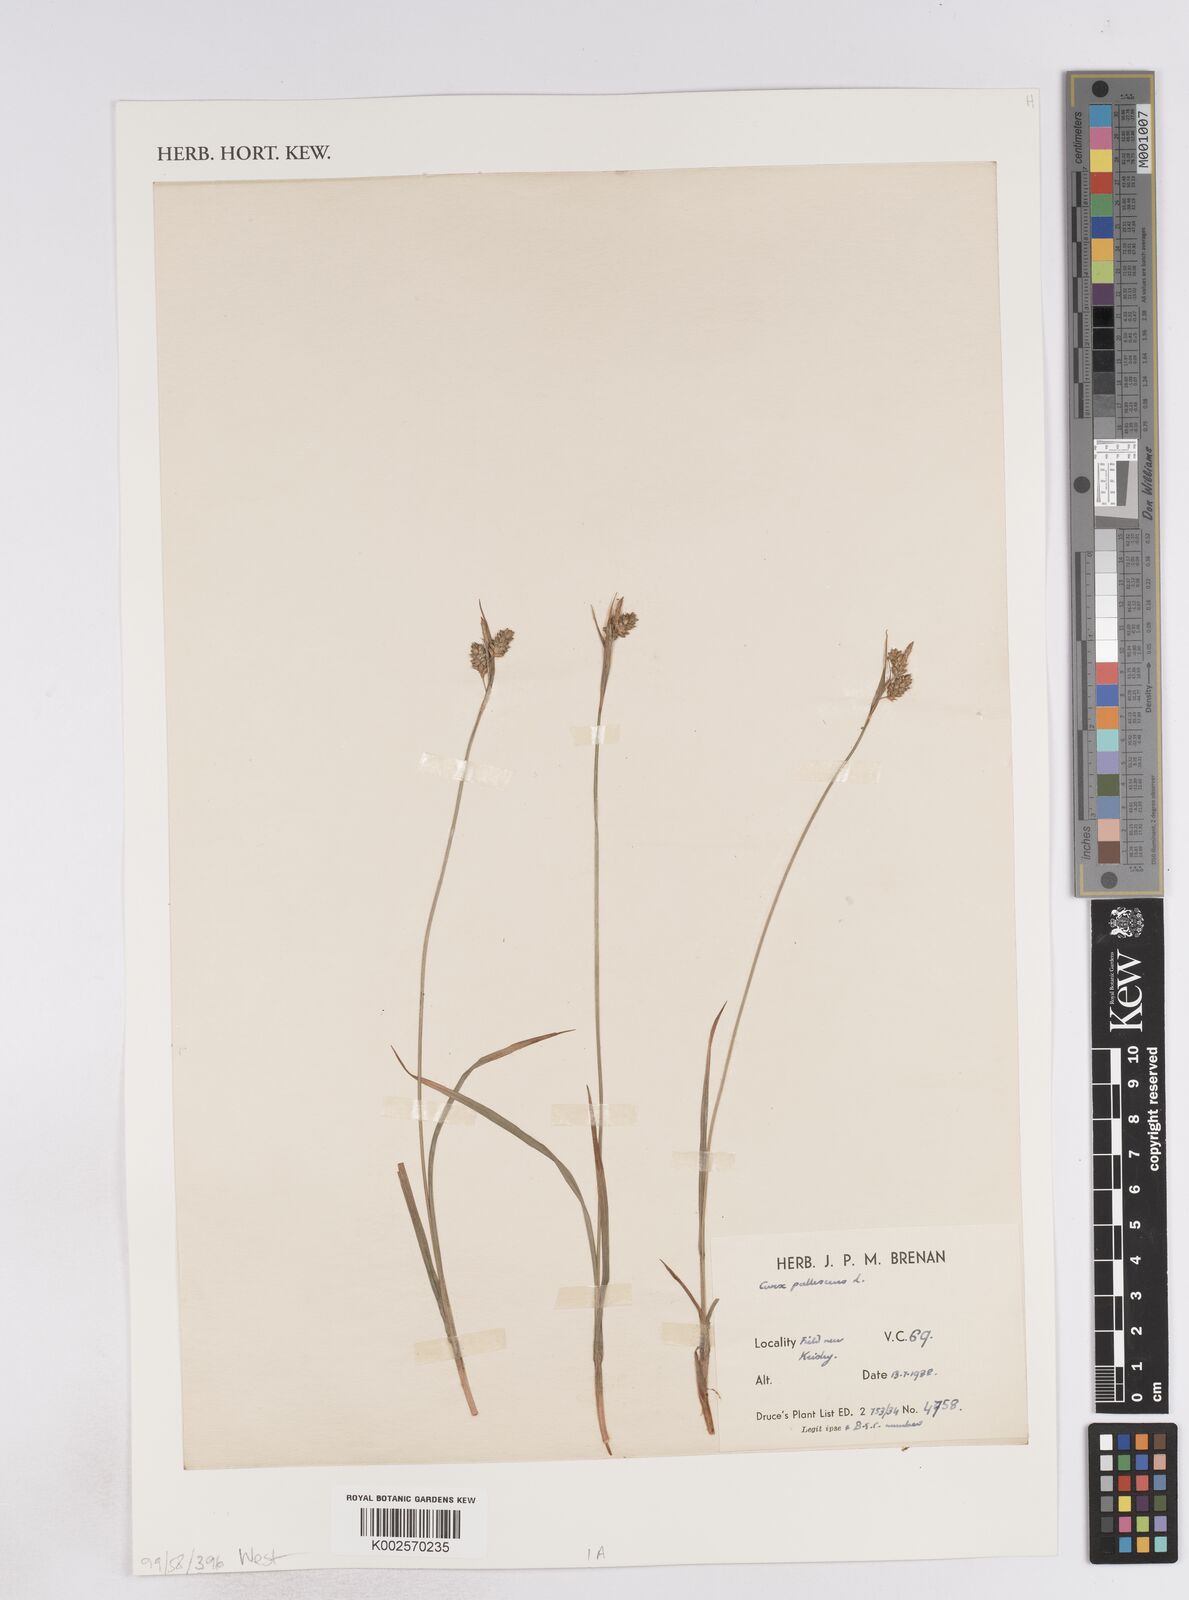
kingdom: Plantae
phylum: Tracheophyta
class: Liliopsida
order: Poales
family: Cyperaceae
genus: Carex
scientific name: Carex pallescens
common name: Pale sedge
